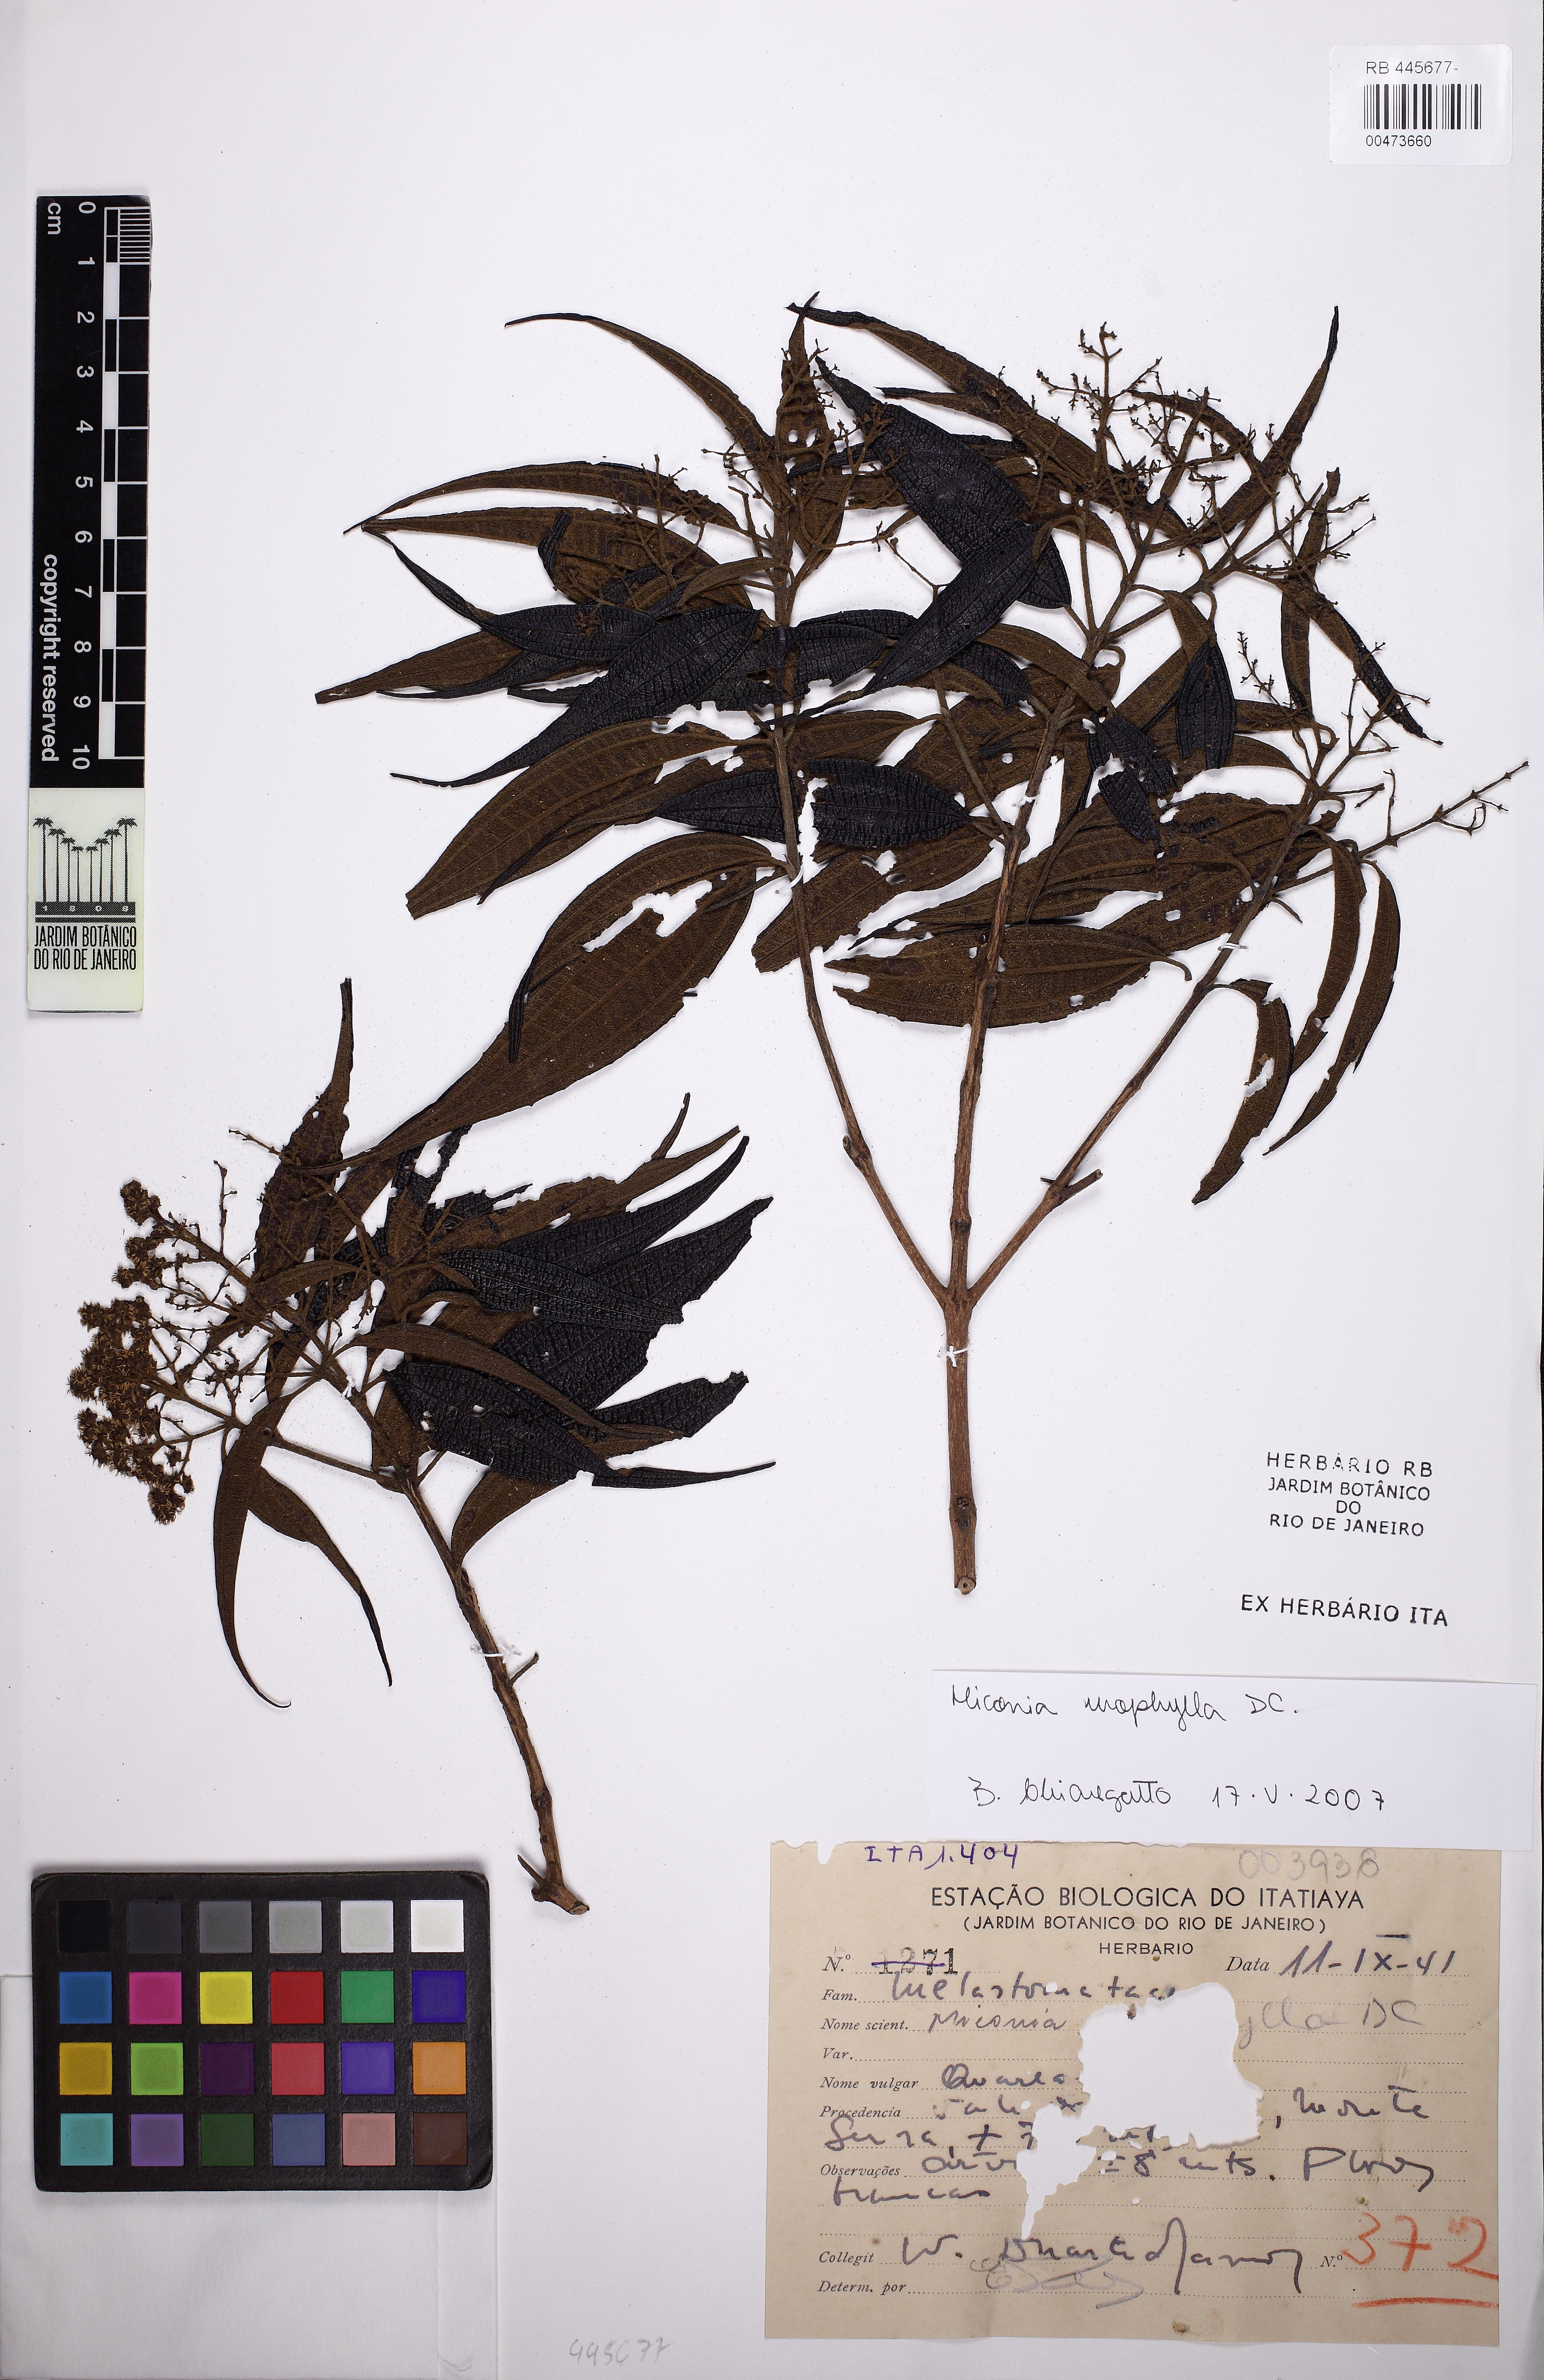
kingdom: Plantae
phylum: Tracheophyta
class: Magnoliopsida
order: Myrtales
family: Melastomataceae
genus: Miconia
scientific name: Miconia urophylla
